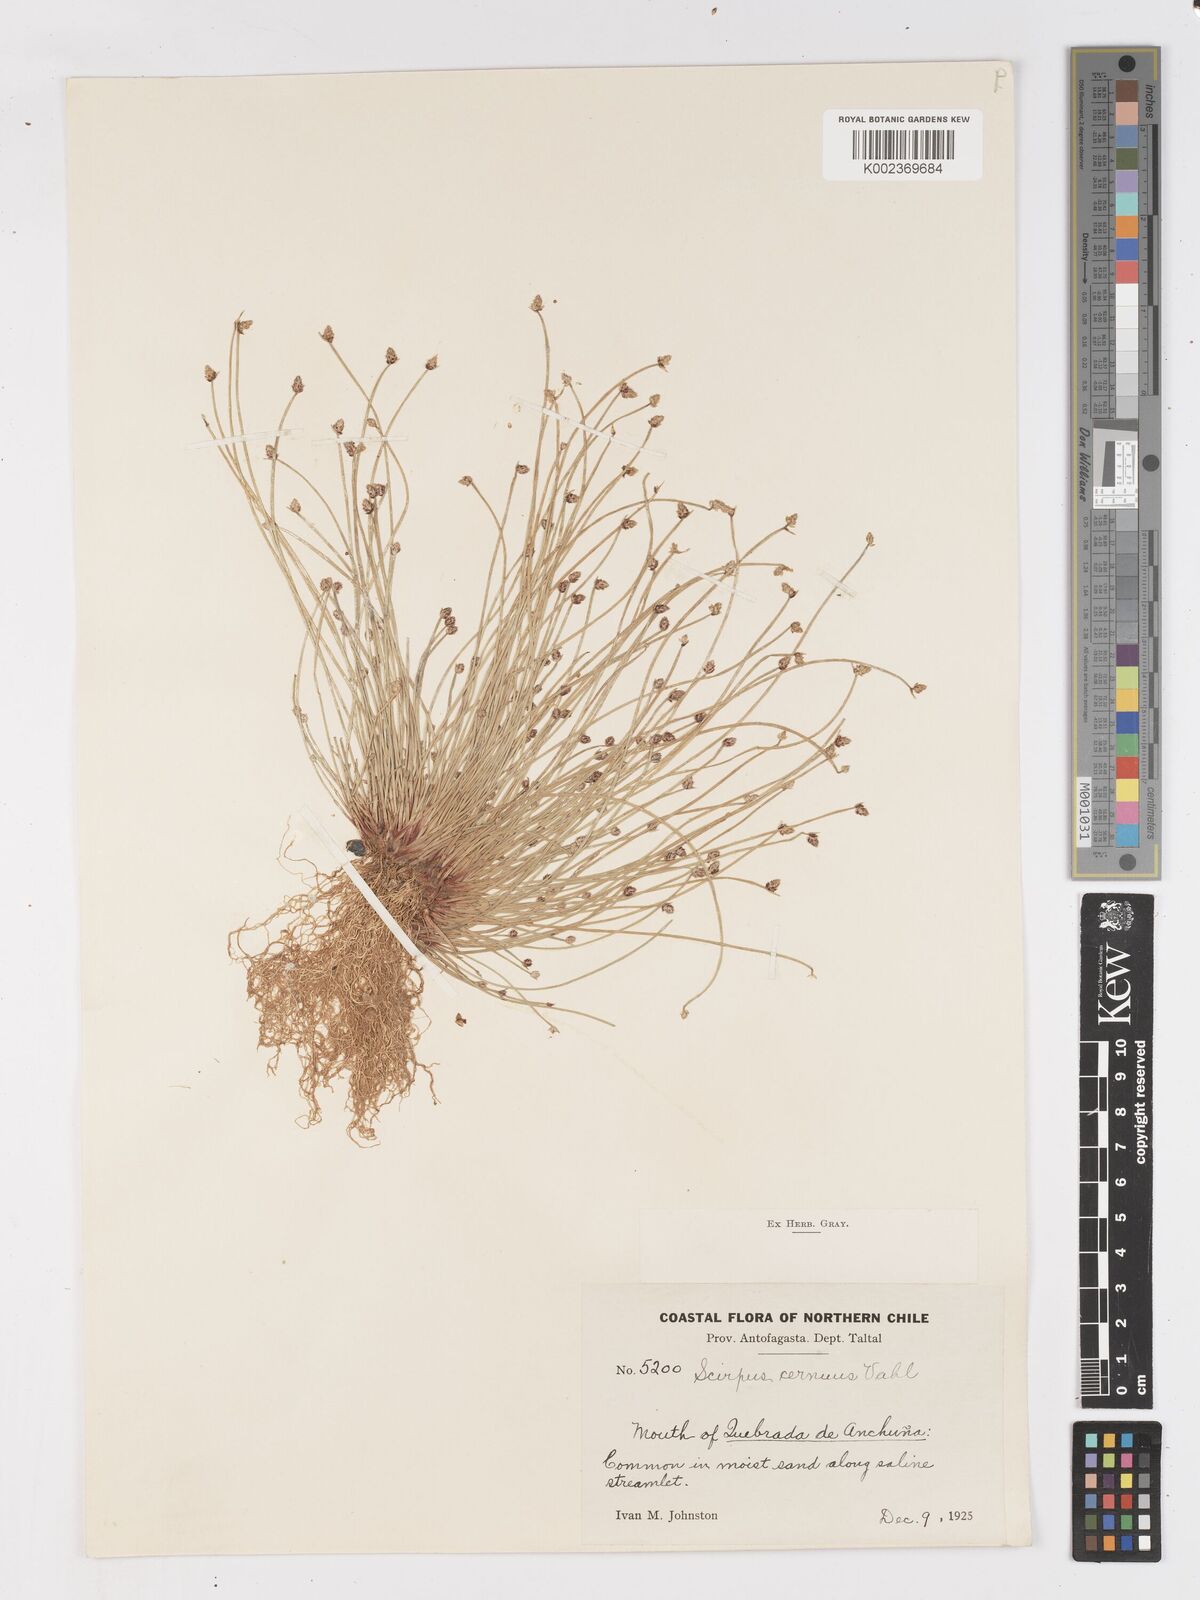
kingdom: Plantae
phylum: Tracheophyta
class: Liliopsida
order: Poales
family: Cyperaceae
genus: Isolepis
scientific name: Isolepis cernua
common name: Slender club-rush
